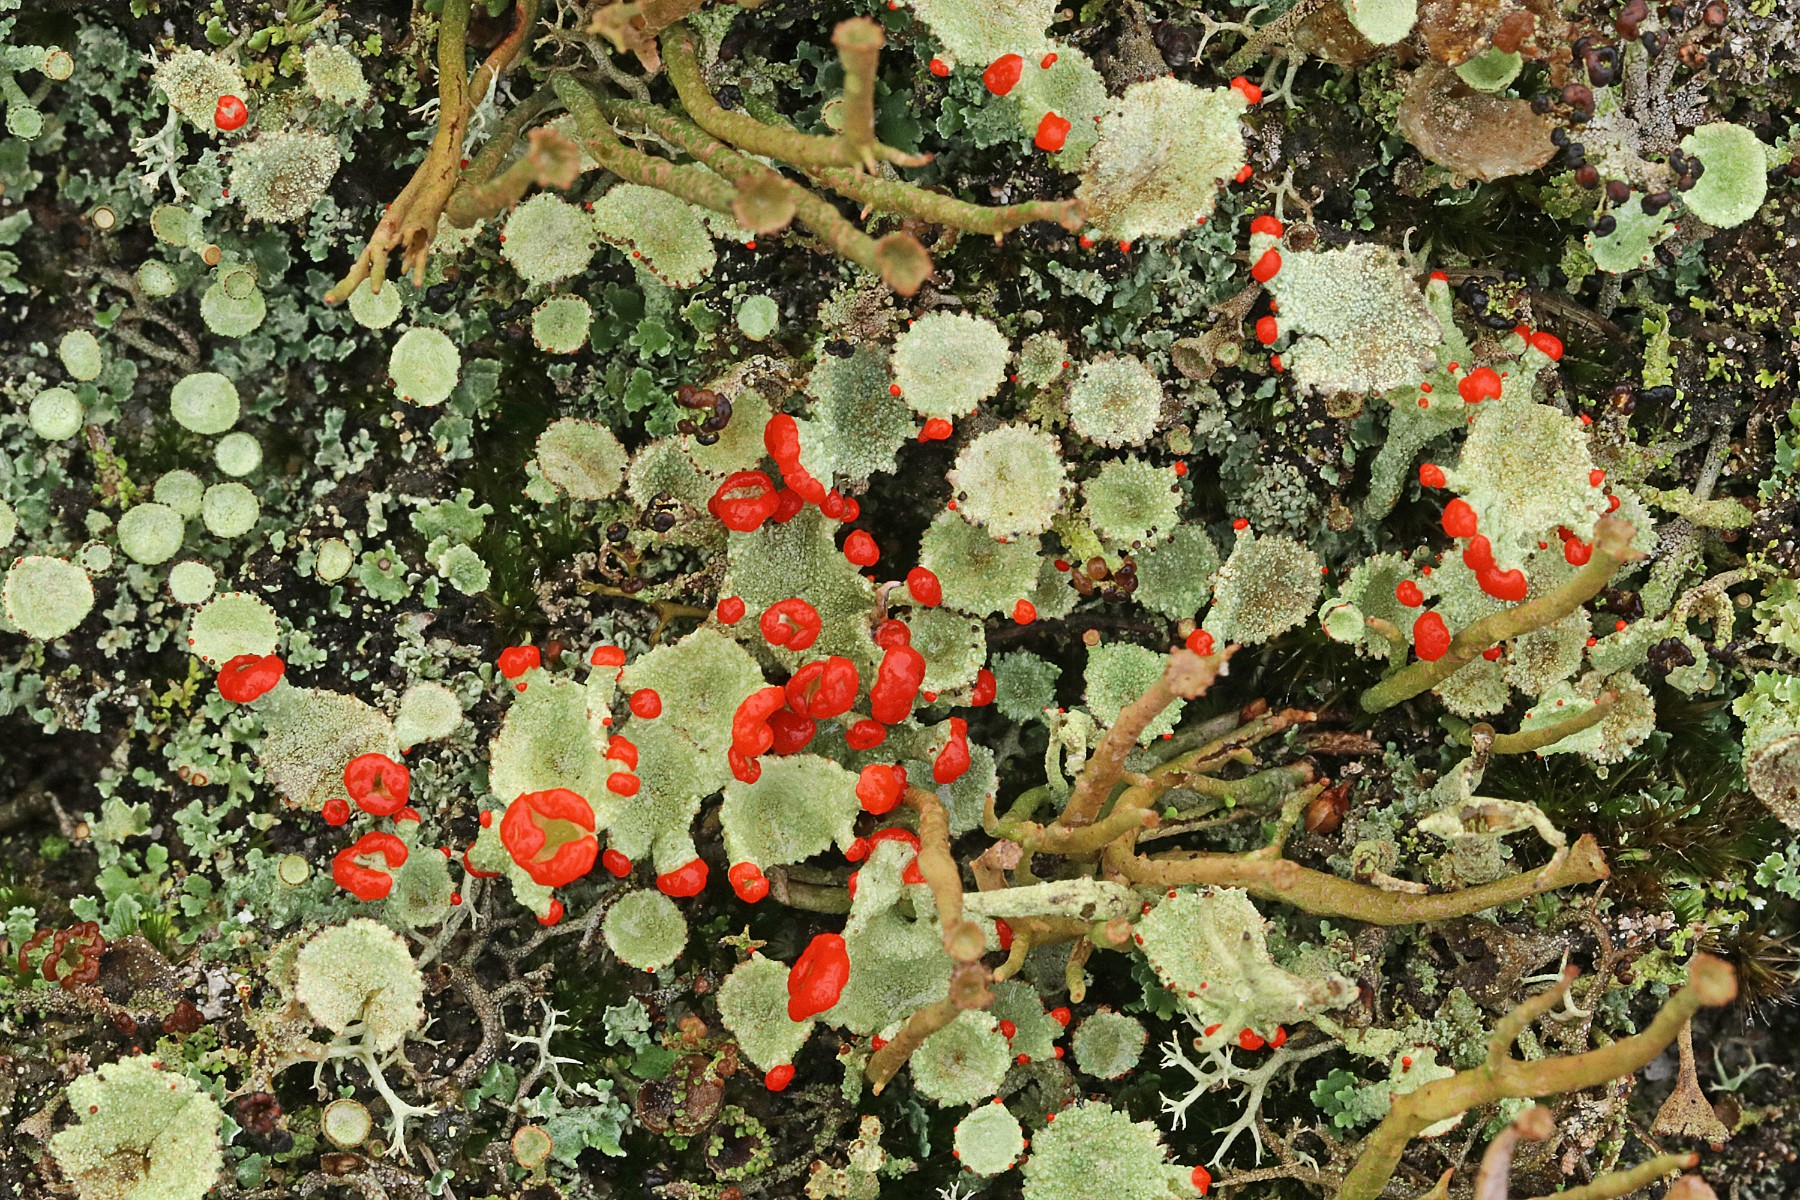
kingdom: Fungi
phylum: Ascomycota
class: Lecanoromycetes
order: Lecanorales
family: Cladoniaceae
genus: Cladonia
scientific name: Cladonia diversa
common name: rød bægerlav
